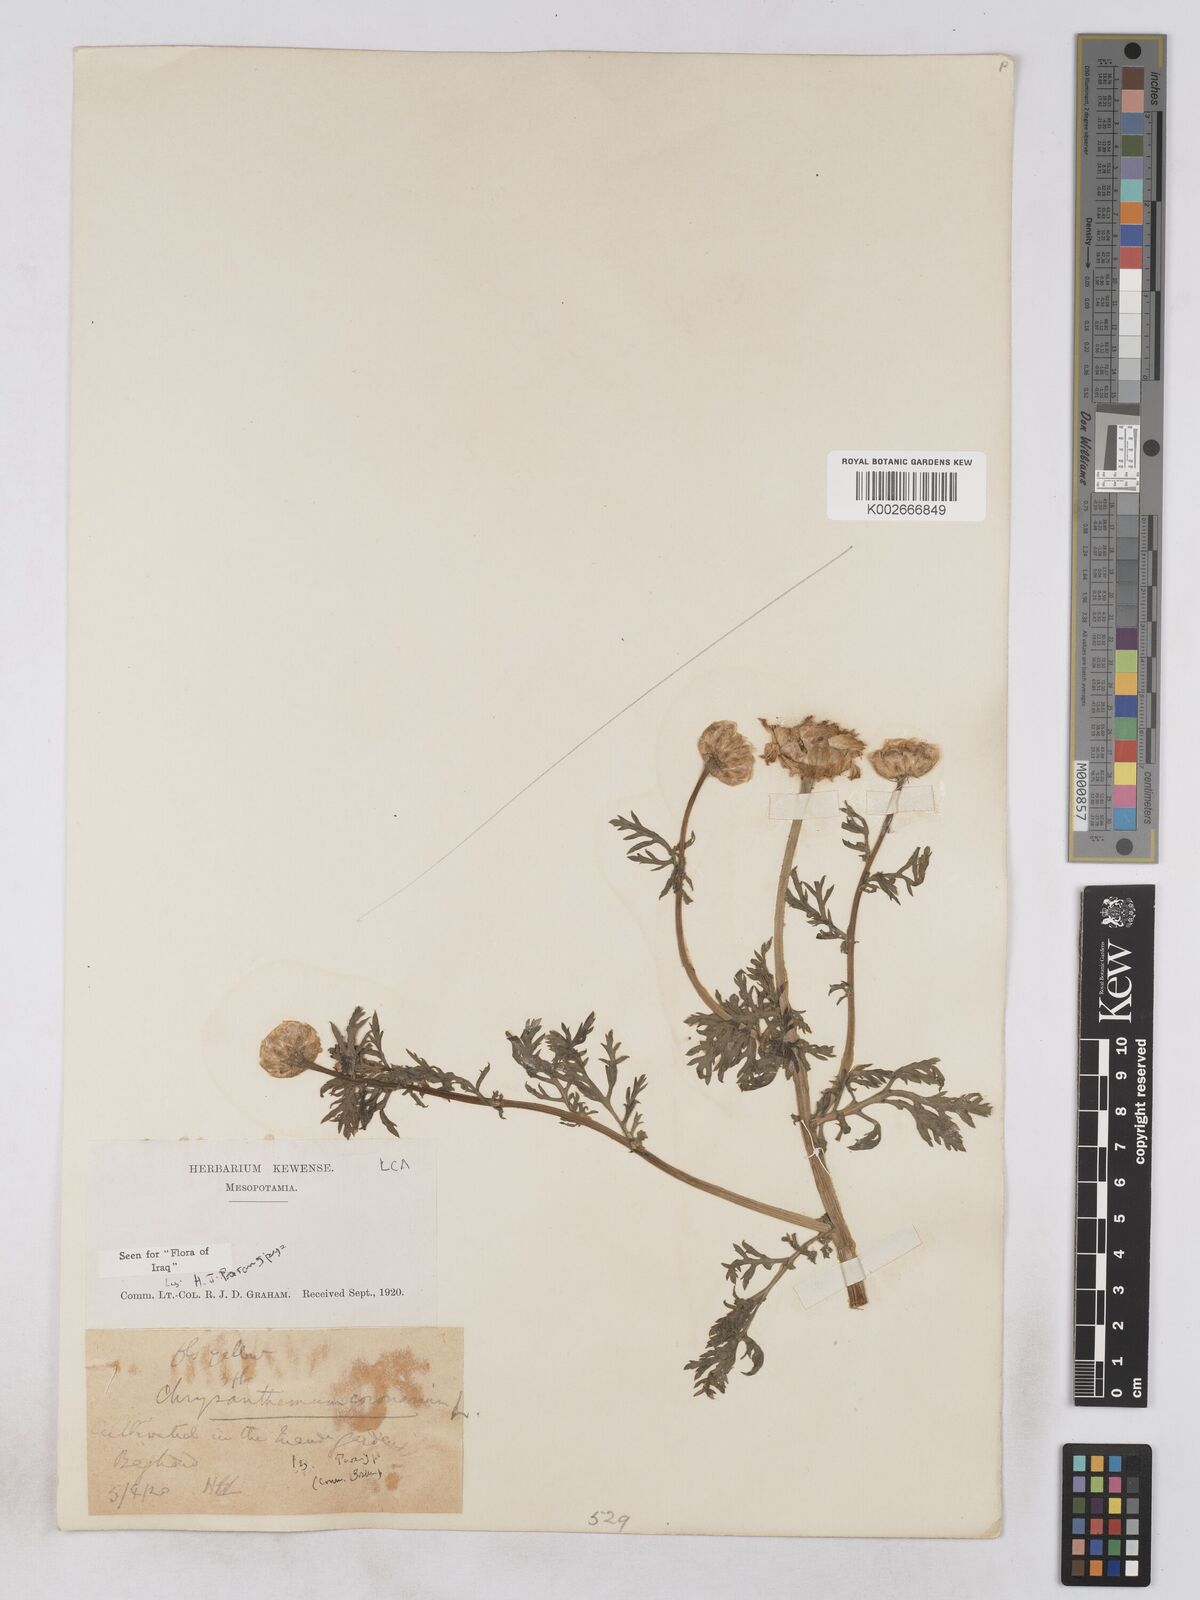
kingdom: Plantae
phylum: Tracheophyta
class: Magnoliopsida
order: Asterales
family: Asteraceae
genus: Glebionis
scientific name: Glebionis coronaria
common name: Crowndaisy
